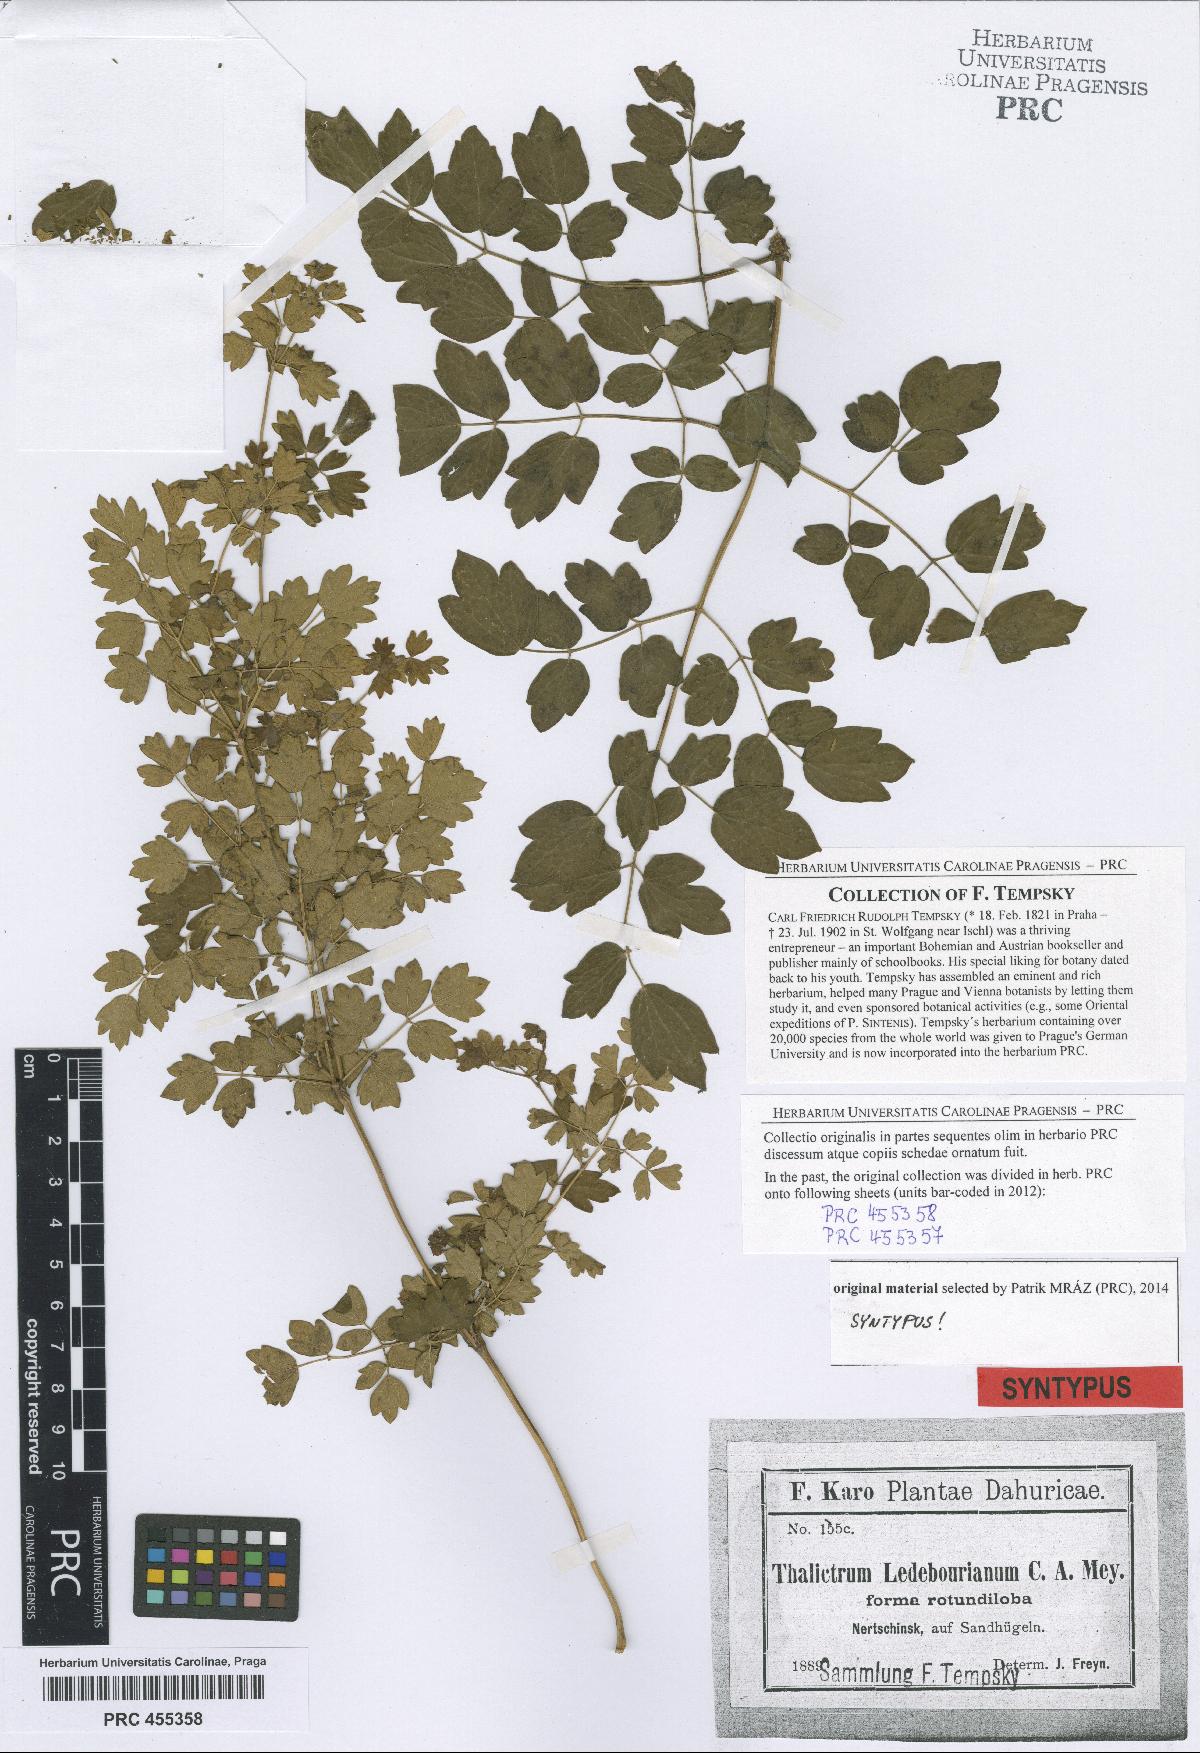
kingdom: Plantae
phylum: Tracheophyta
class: Magnoliopsida
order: Ranunculales
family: Ranunculaceae
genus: Thalictrum
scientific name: Thalictrum squarrosum
